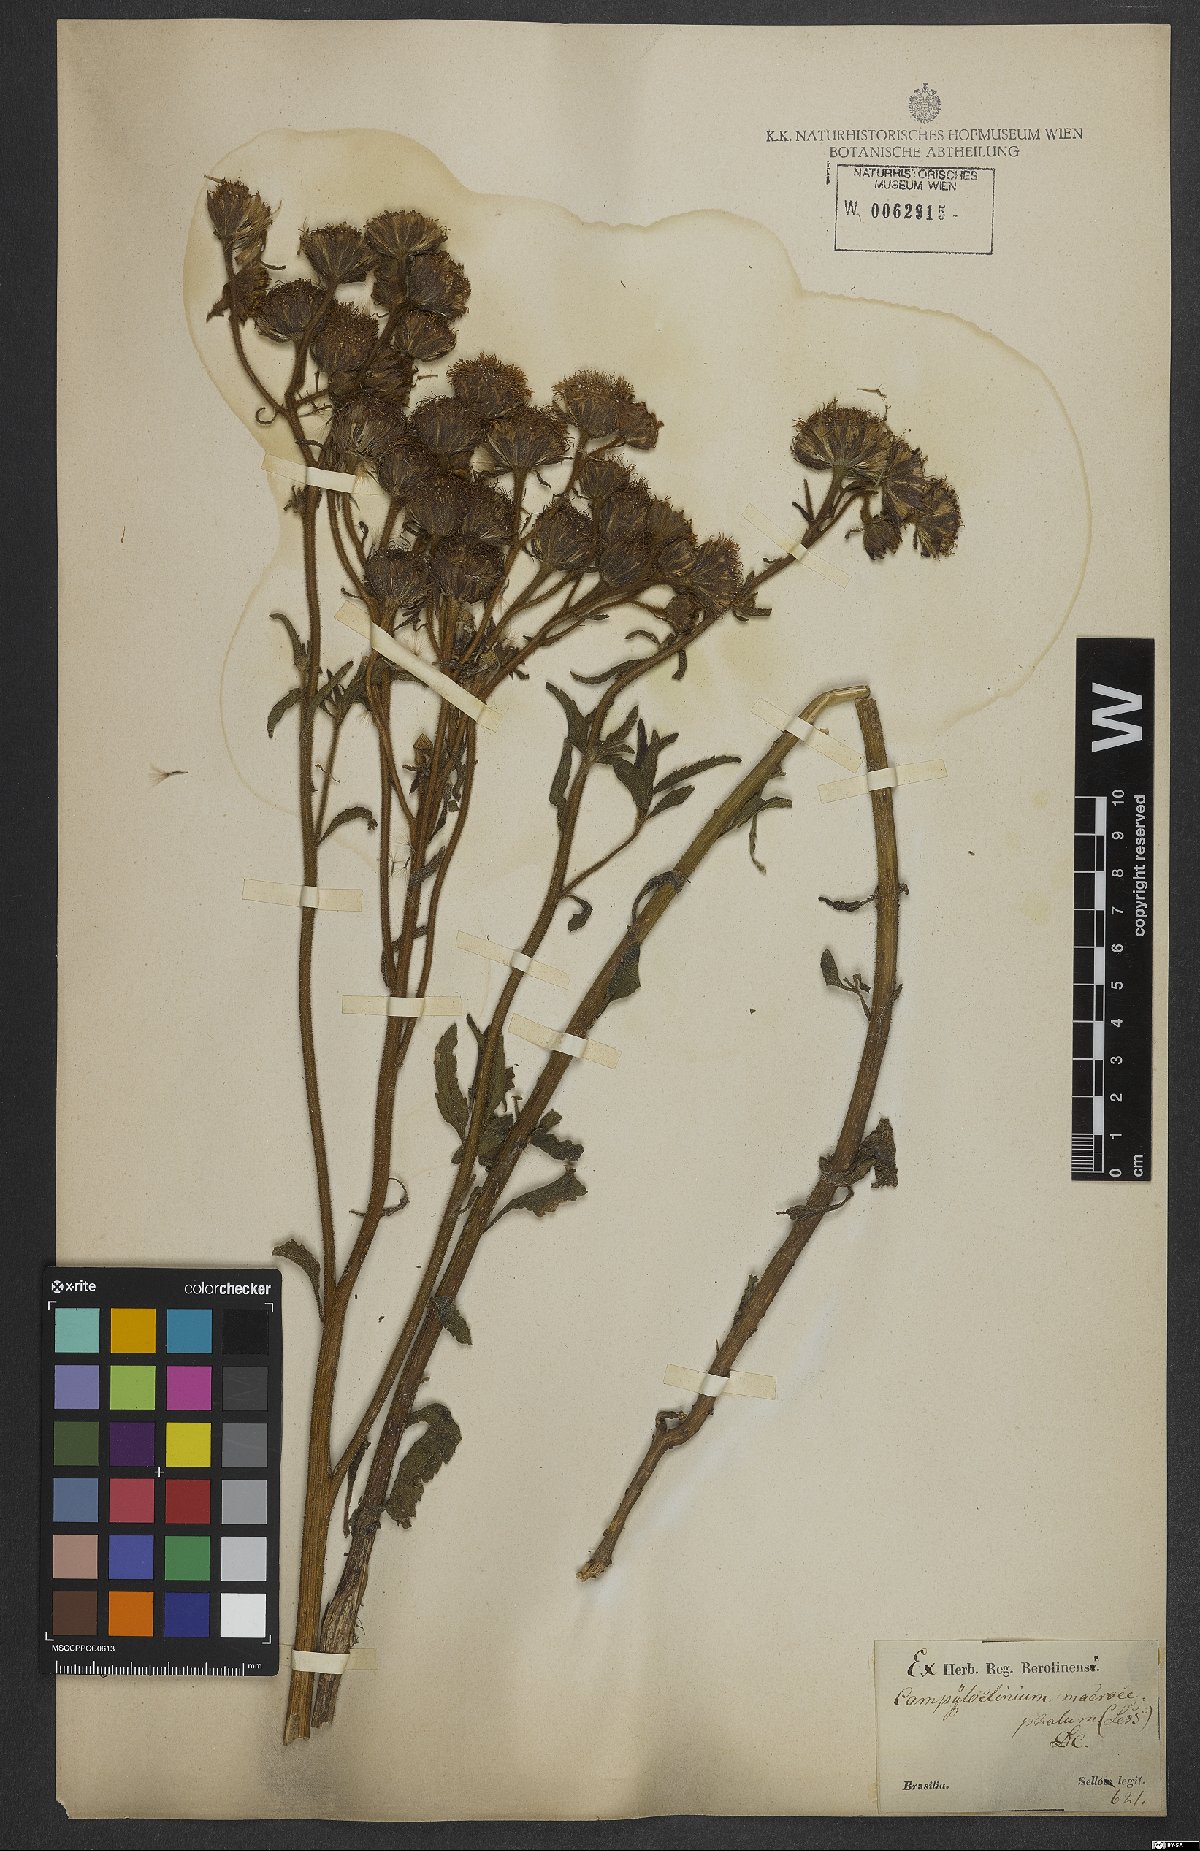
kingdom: Plantae
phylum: Tracheophyta
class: Magnoliopsida
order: Asterales
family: Asteraceae
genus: Campuloclinium
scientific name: Campuloclinium macrocephalum
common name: Pompomweed
